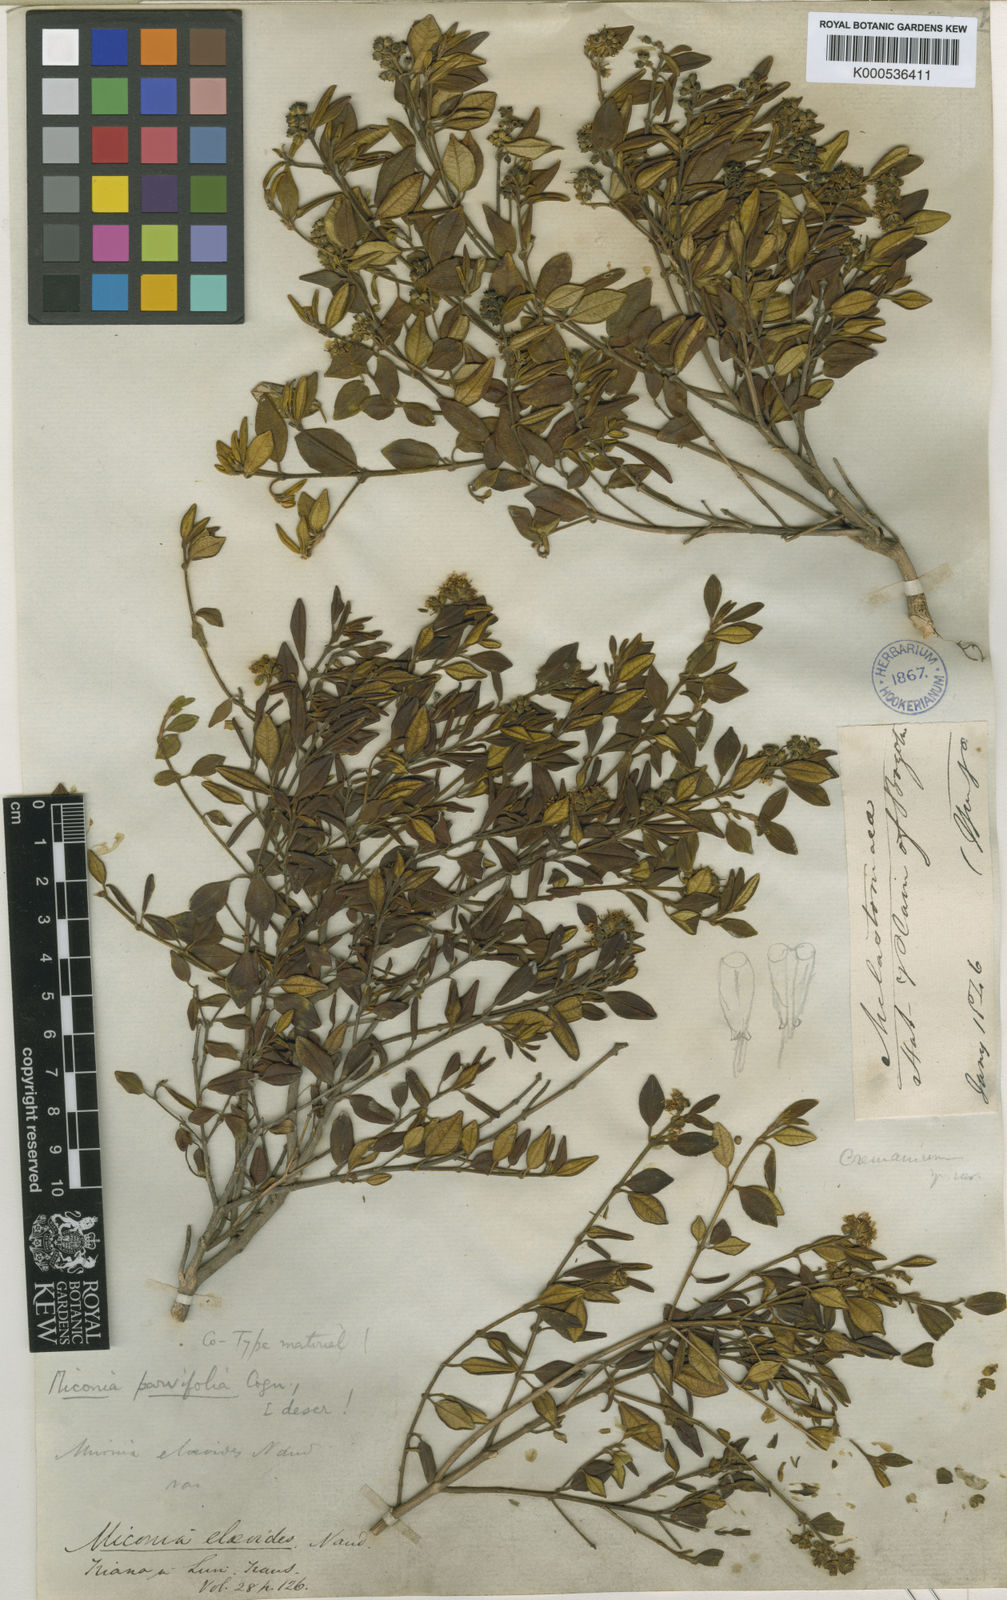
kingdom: Plantae
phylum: Tracheophyta
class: Magnoliopsida
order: Myrtales
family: Melastomataceae
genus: Miconia
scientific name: Miconia parvifolia
